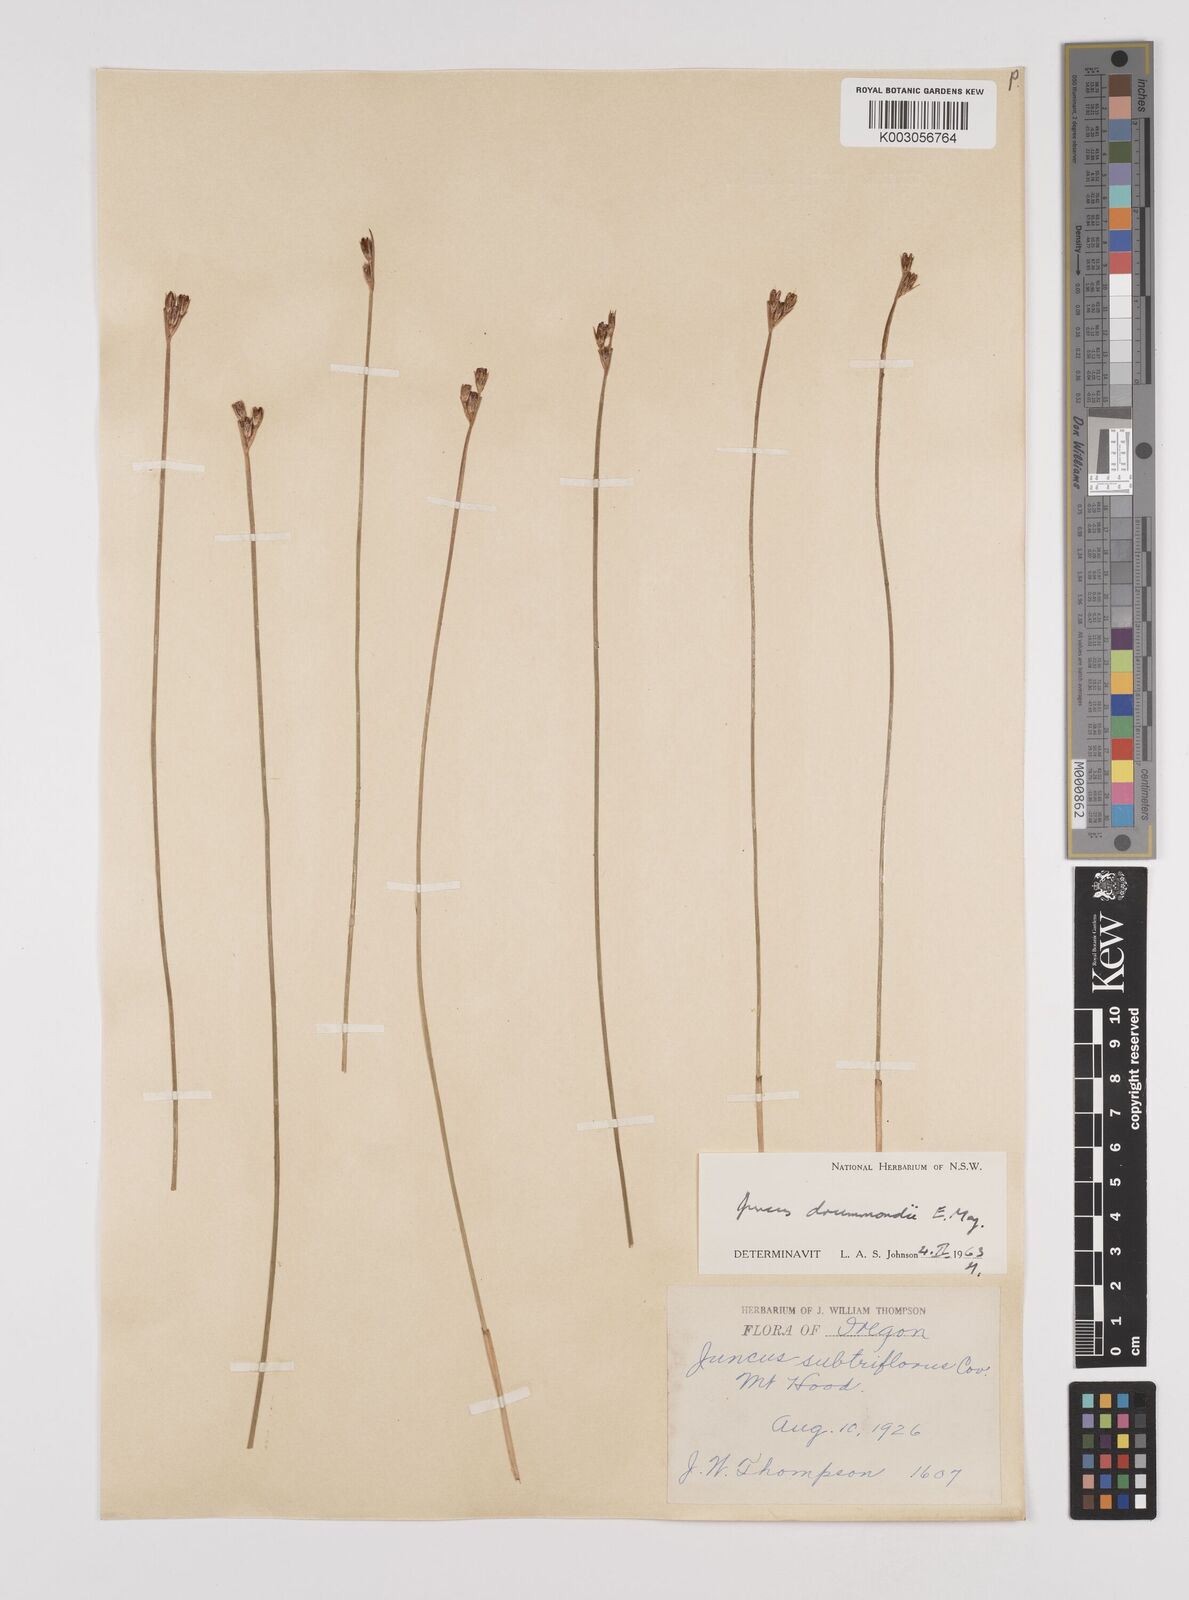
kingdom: Plantae
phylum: Tracheophyta
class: Liliopsida
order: Poales
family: Juncaceae
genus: Juncus
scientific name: Juncus drummondii
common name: Drummond's rush
